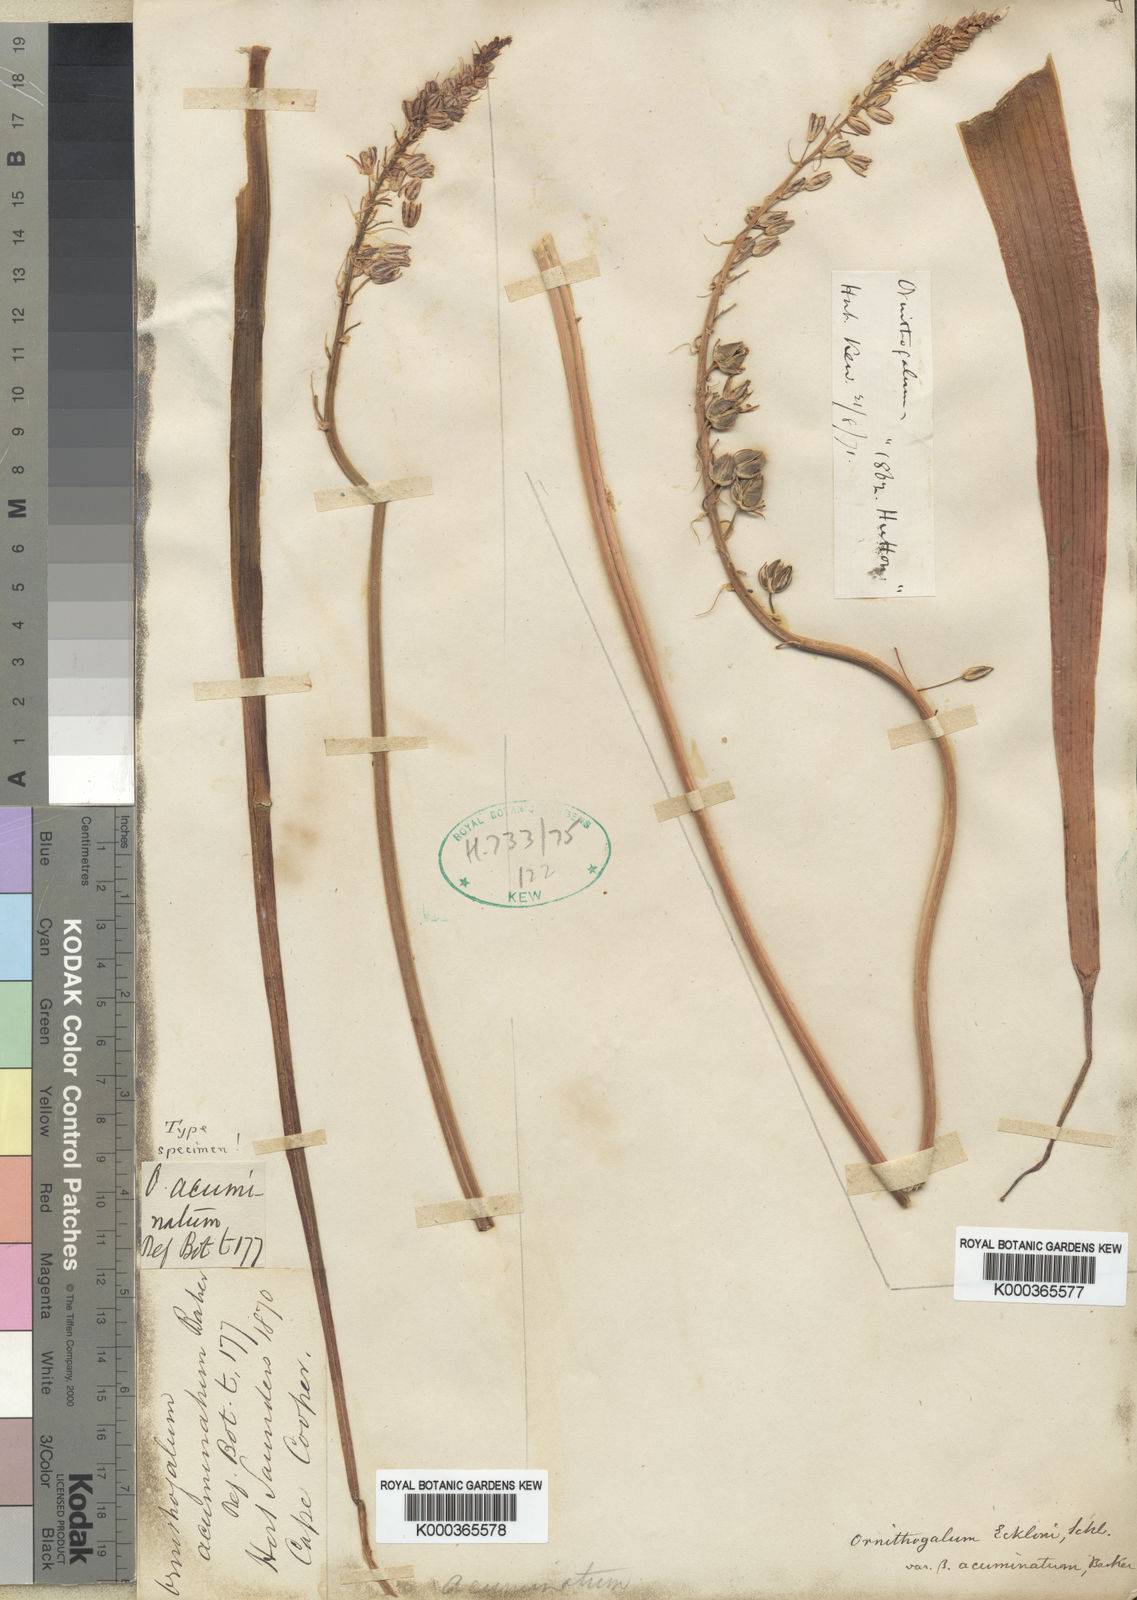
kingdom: Plantae
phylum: Tracheophyta
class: Liliopsida
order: Asparagales
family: Asparagaceae
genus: Ornithogalum
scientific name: Ornithogalum
